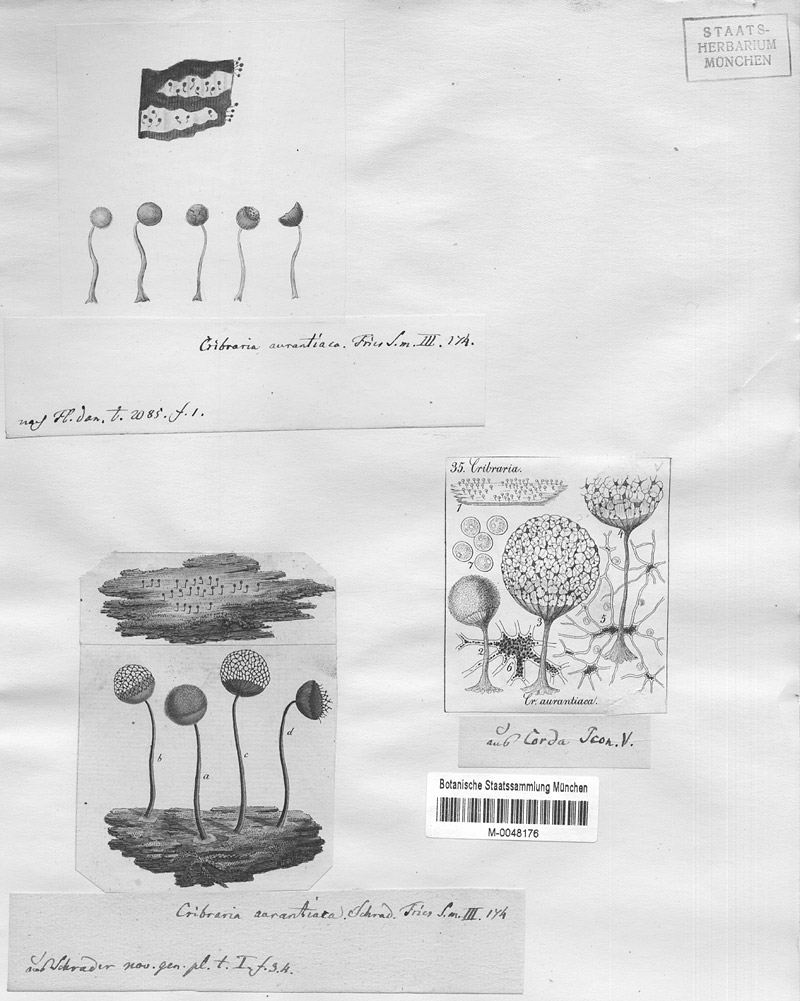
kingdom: Protozoa
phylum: Mycetozoa
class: Myxomycetes
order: Cribrariales
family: Cribrariaceae
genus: Cribraria
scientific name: Cribraria aurantiaca
